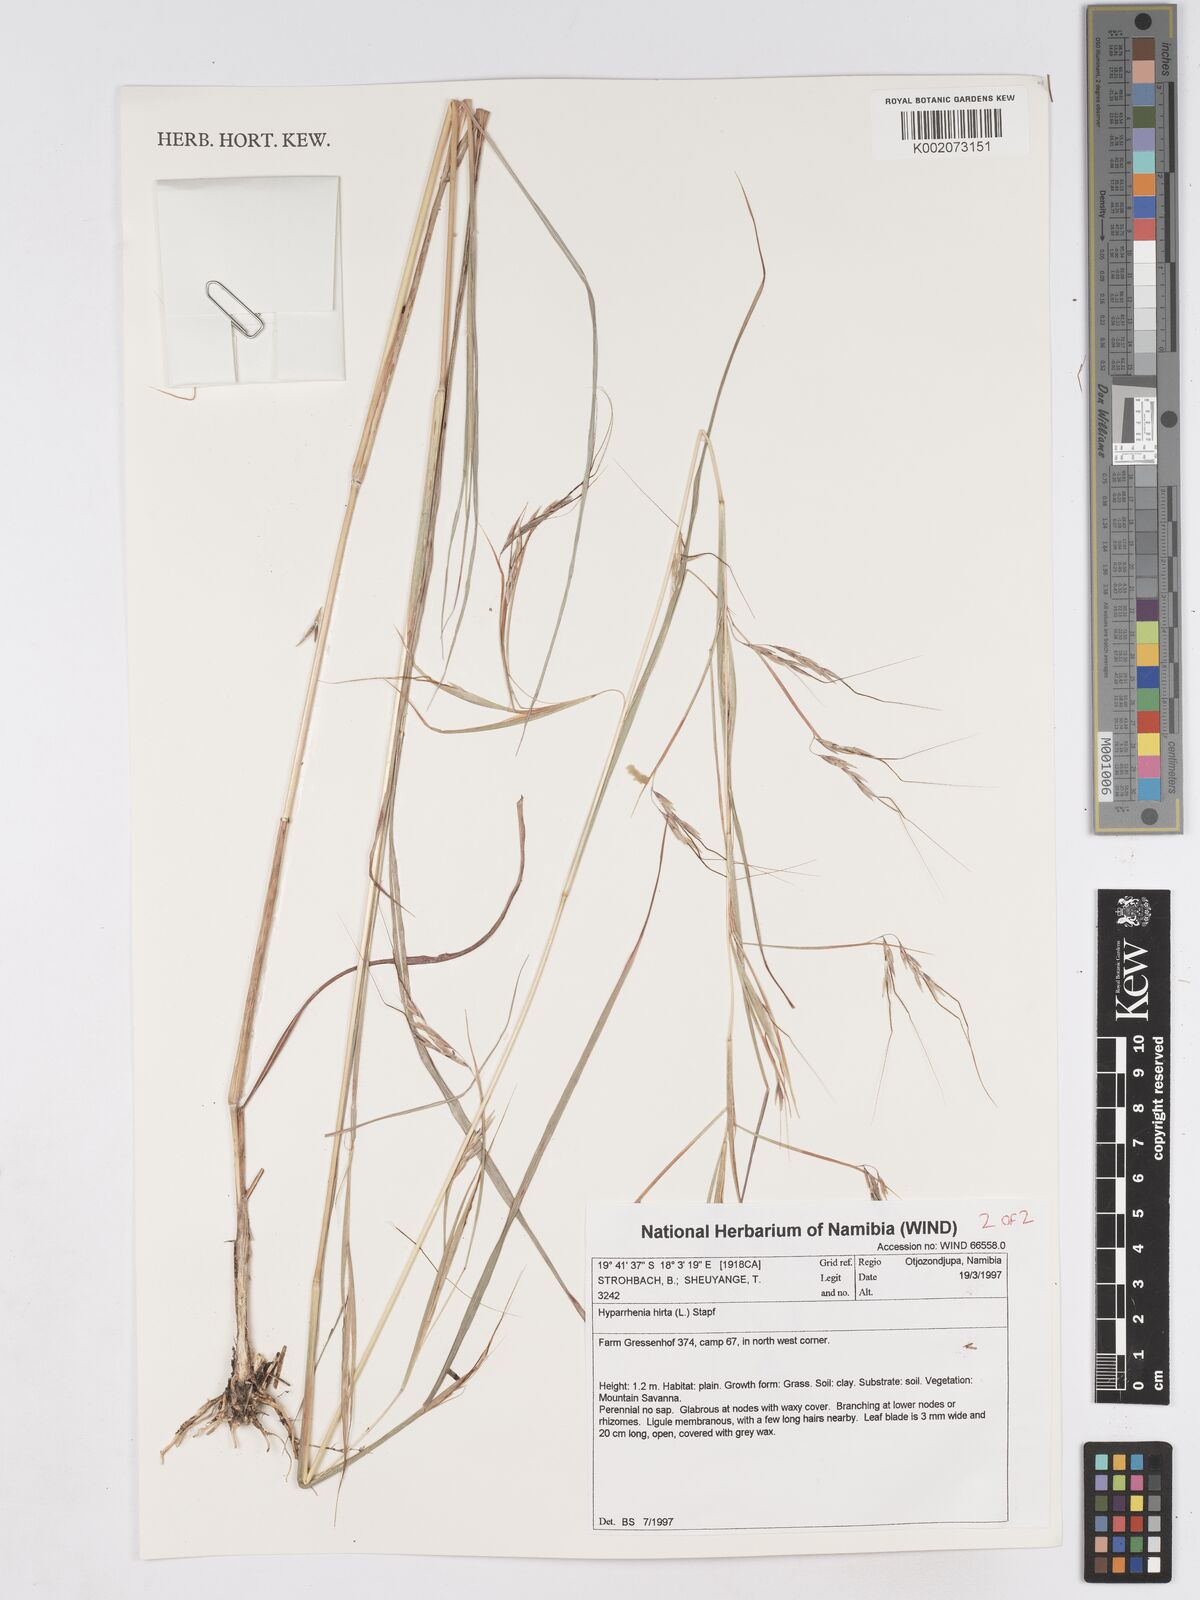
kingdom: Plantae
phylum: Tracheophyta
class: Liliopsida
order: Poales
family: Poaceae
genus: Hyparrhenia
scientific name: Hyparrhenia hirta
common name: Thatching grass
